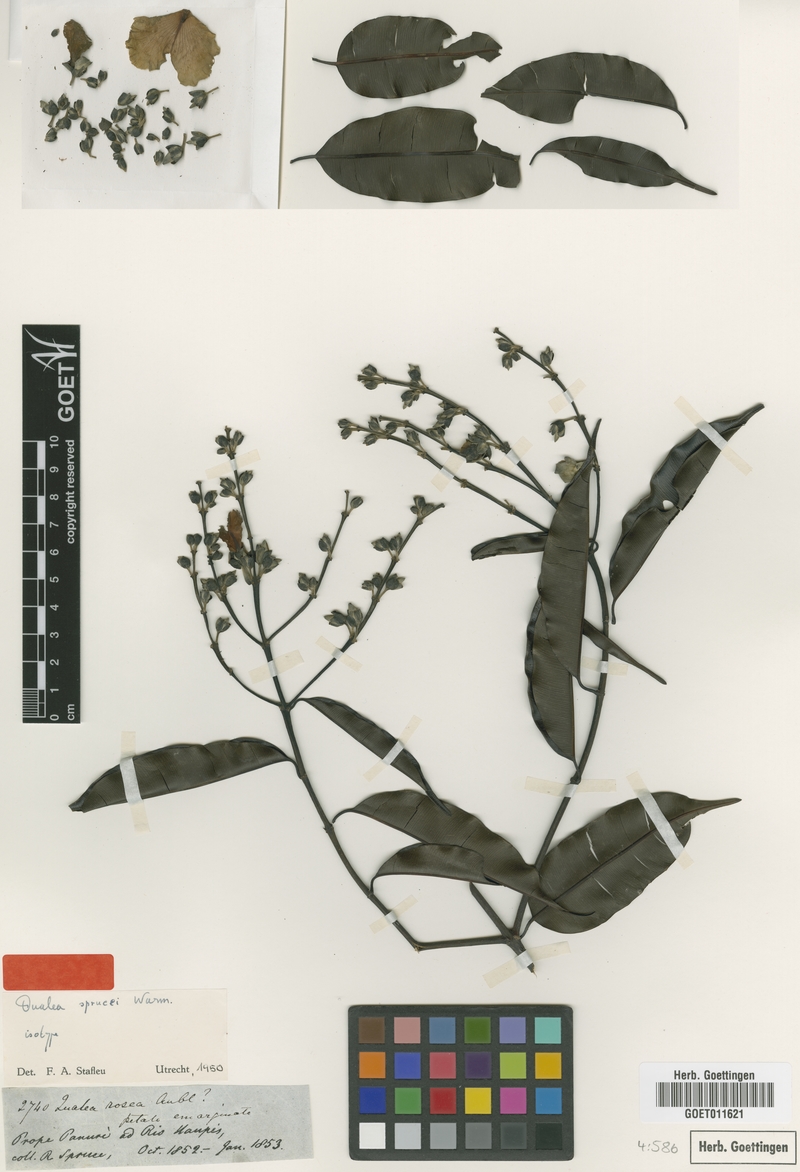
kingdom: Plantae
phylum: Tracheophyta
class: Magnoliopsida
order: Myrtales
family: Vochysiaceae
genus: Qualea
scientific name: Qualea rosea
